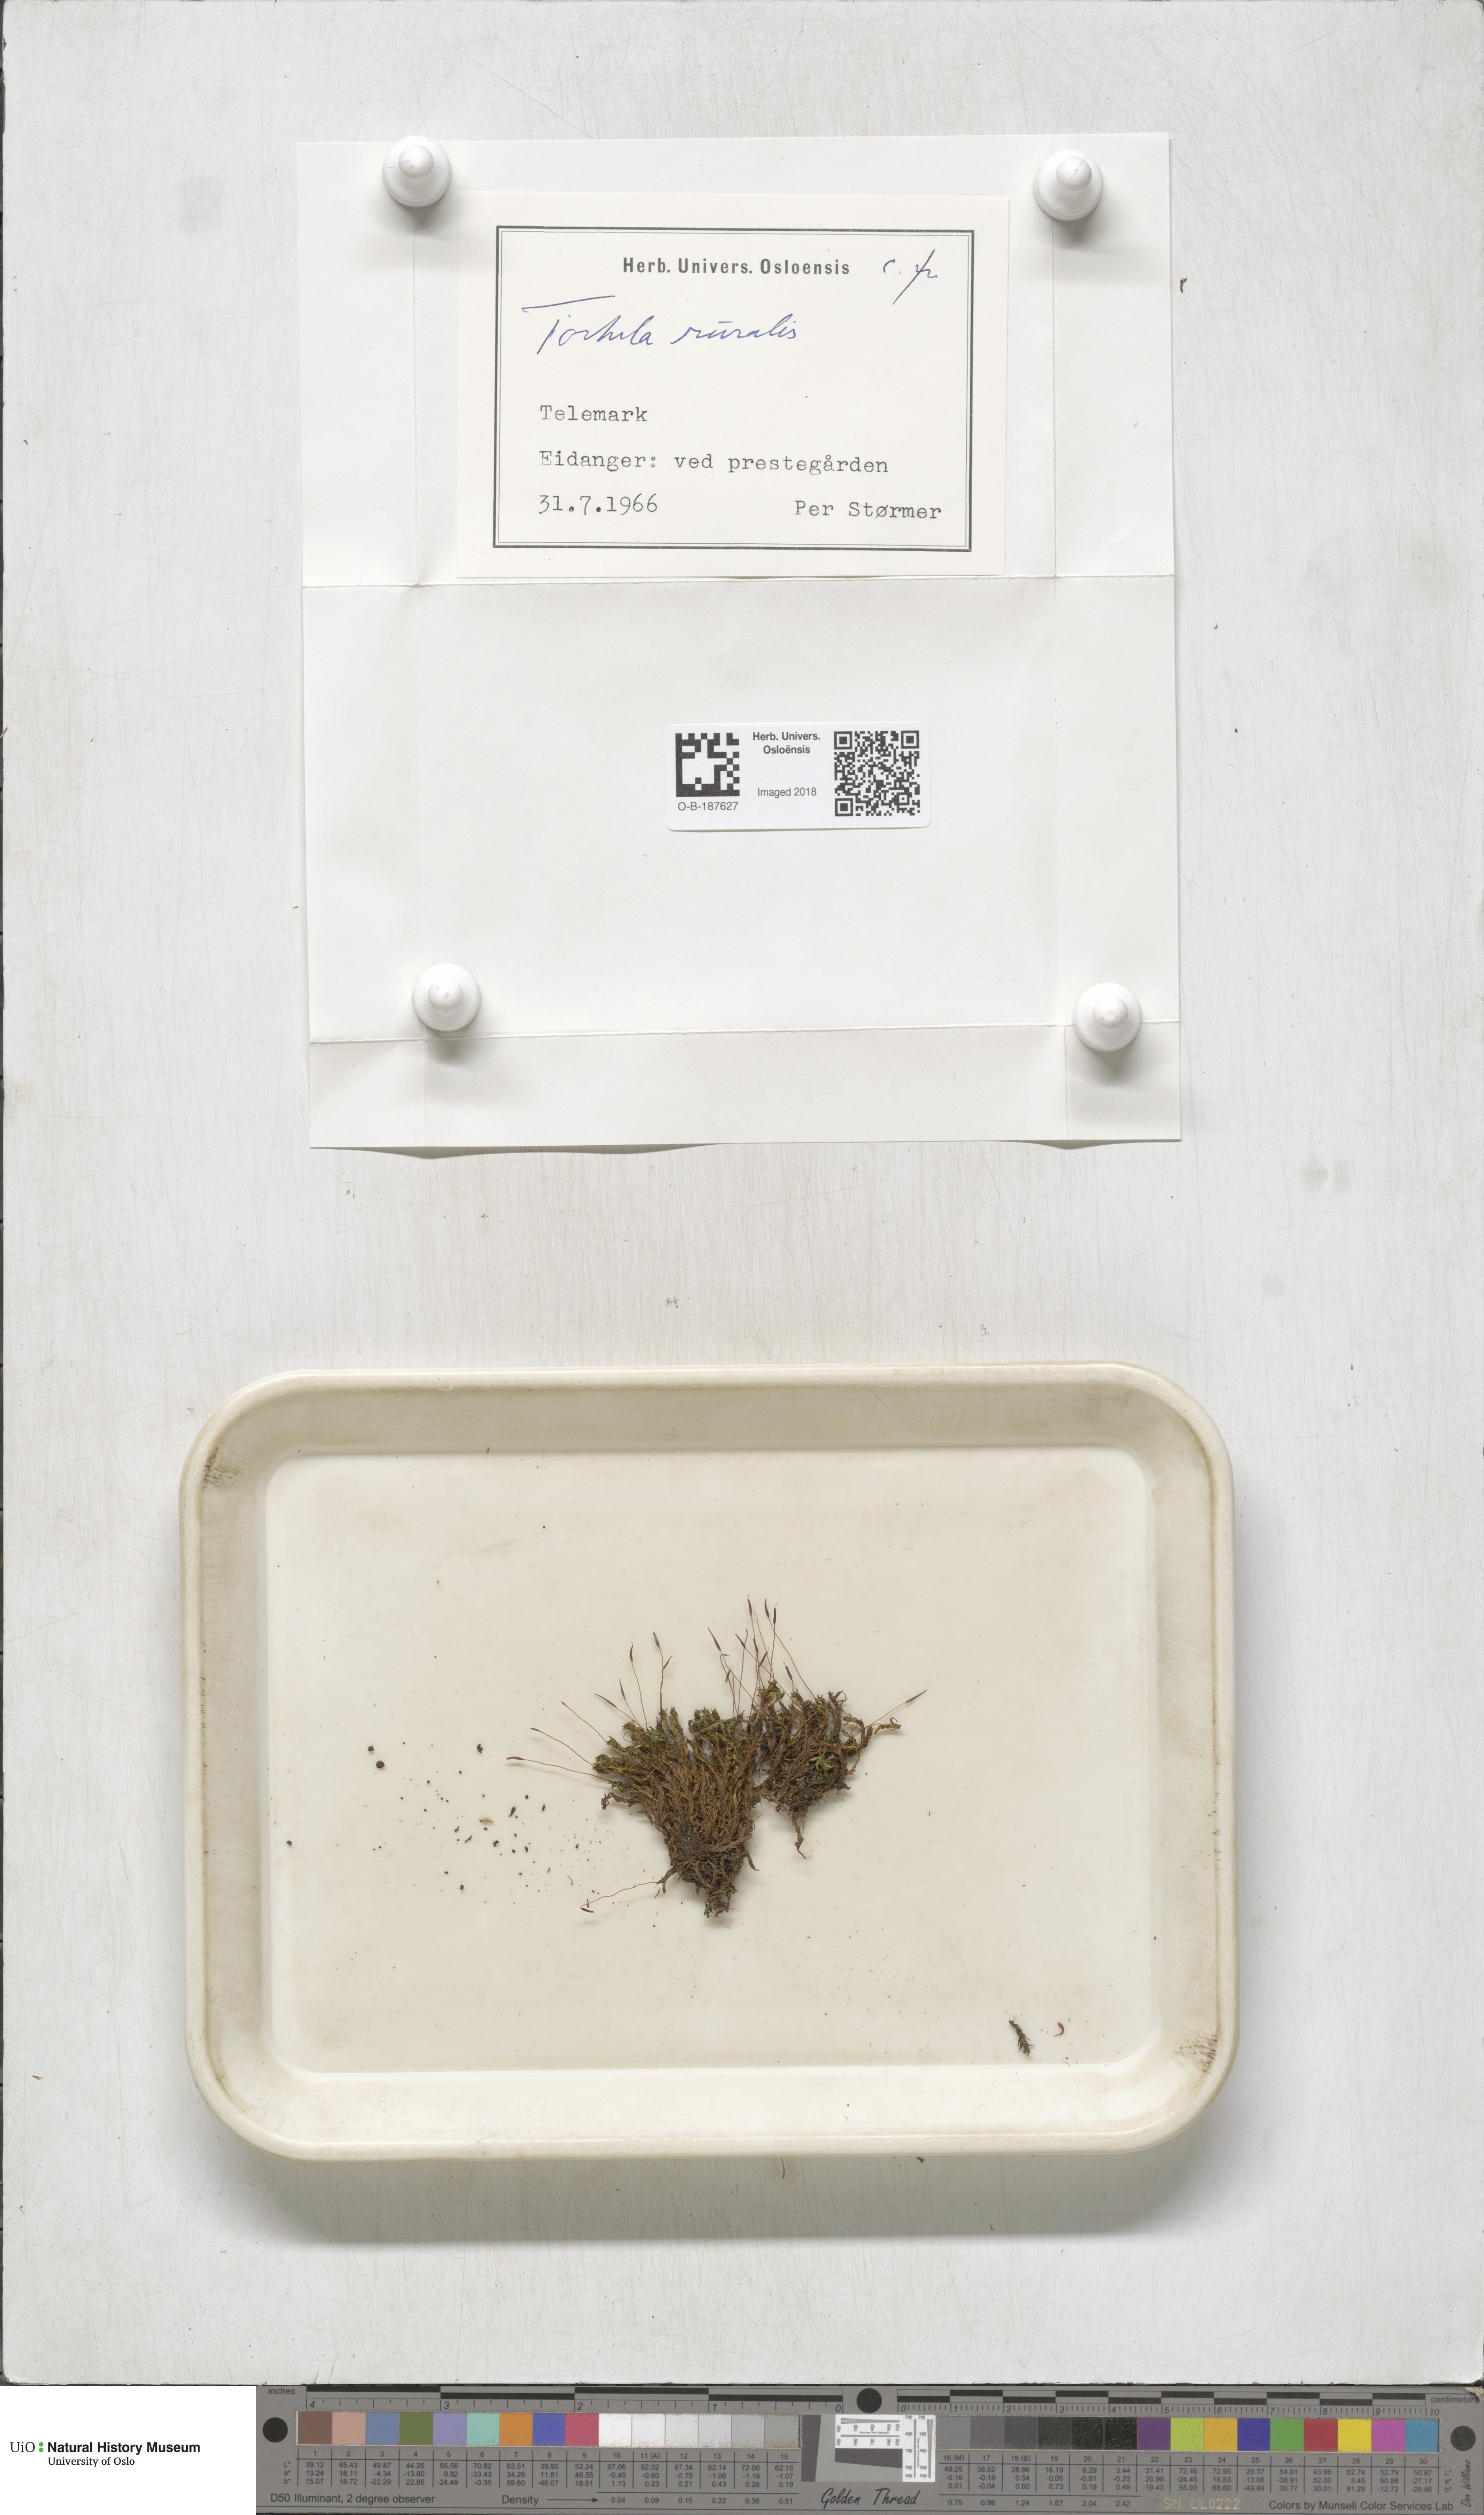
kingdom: Plantae
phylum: Bryophyta
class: Bryopsida
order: Pottiales
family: Pottiaceae
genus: Syntrichia
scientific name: Syntrichia ruralis
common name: Sidewalk screw moss
